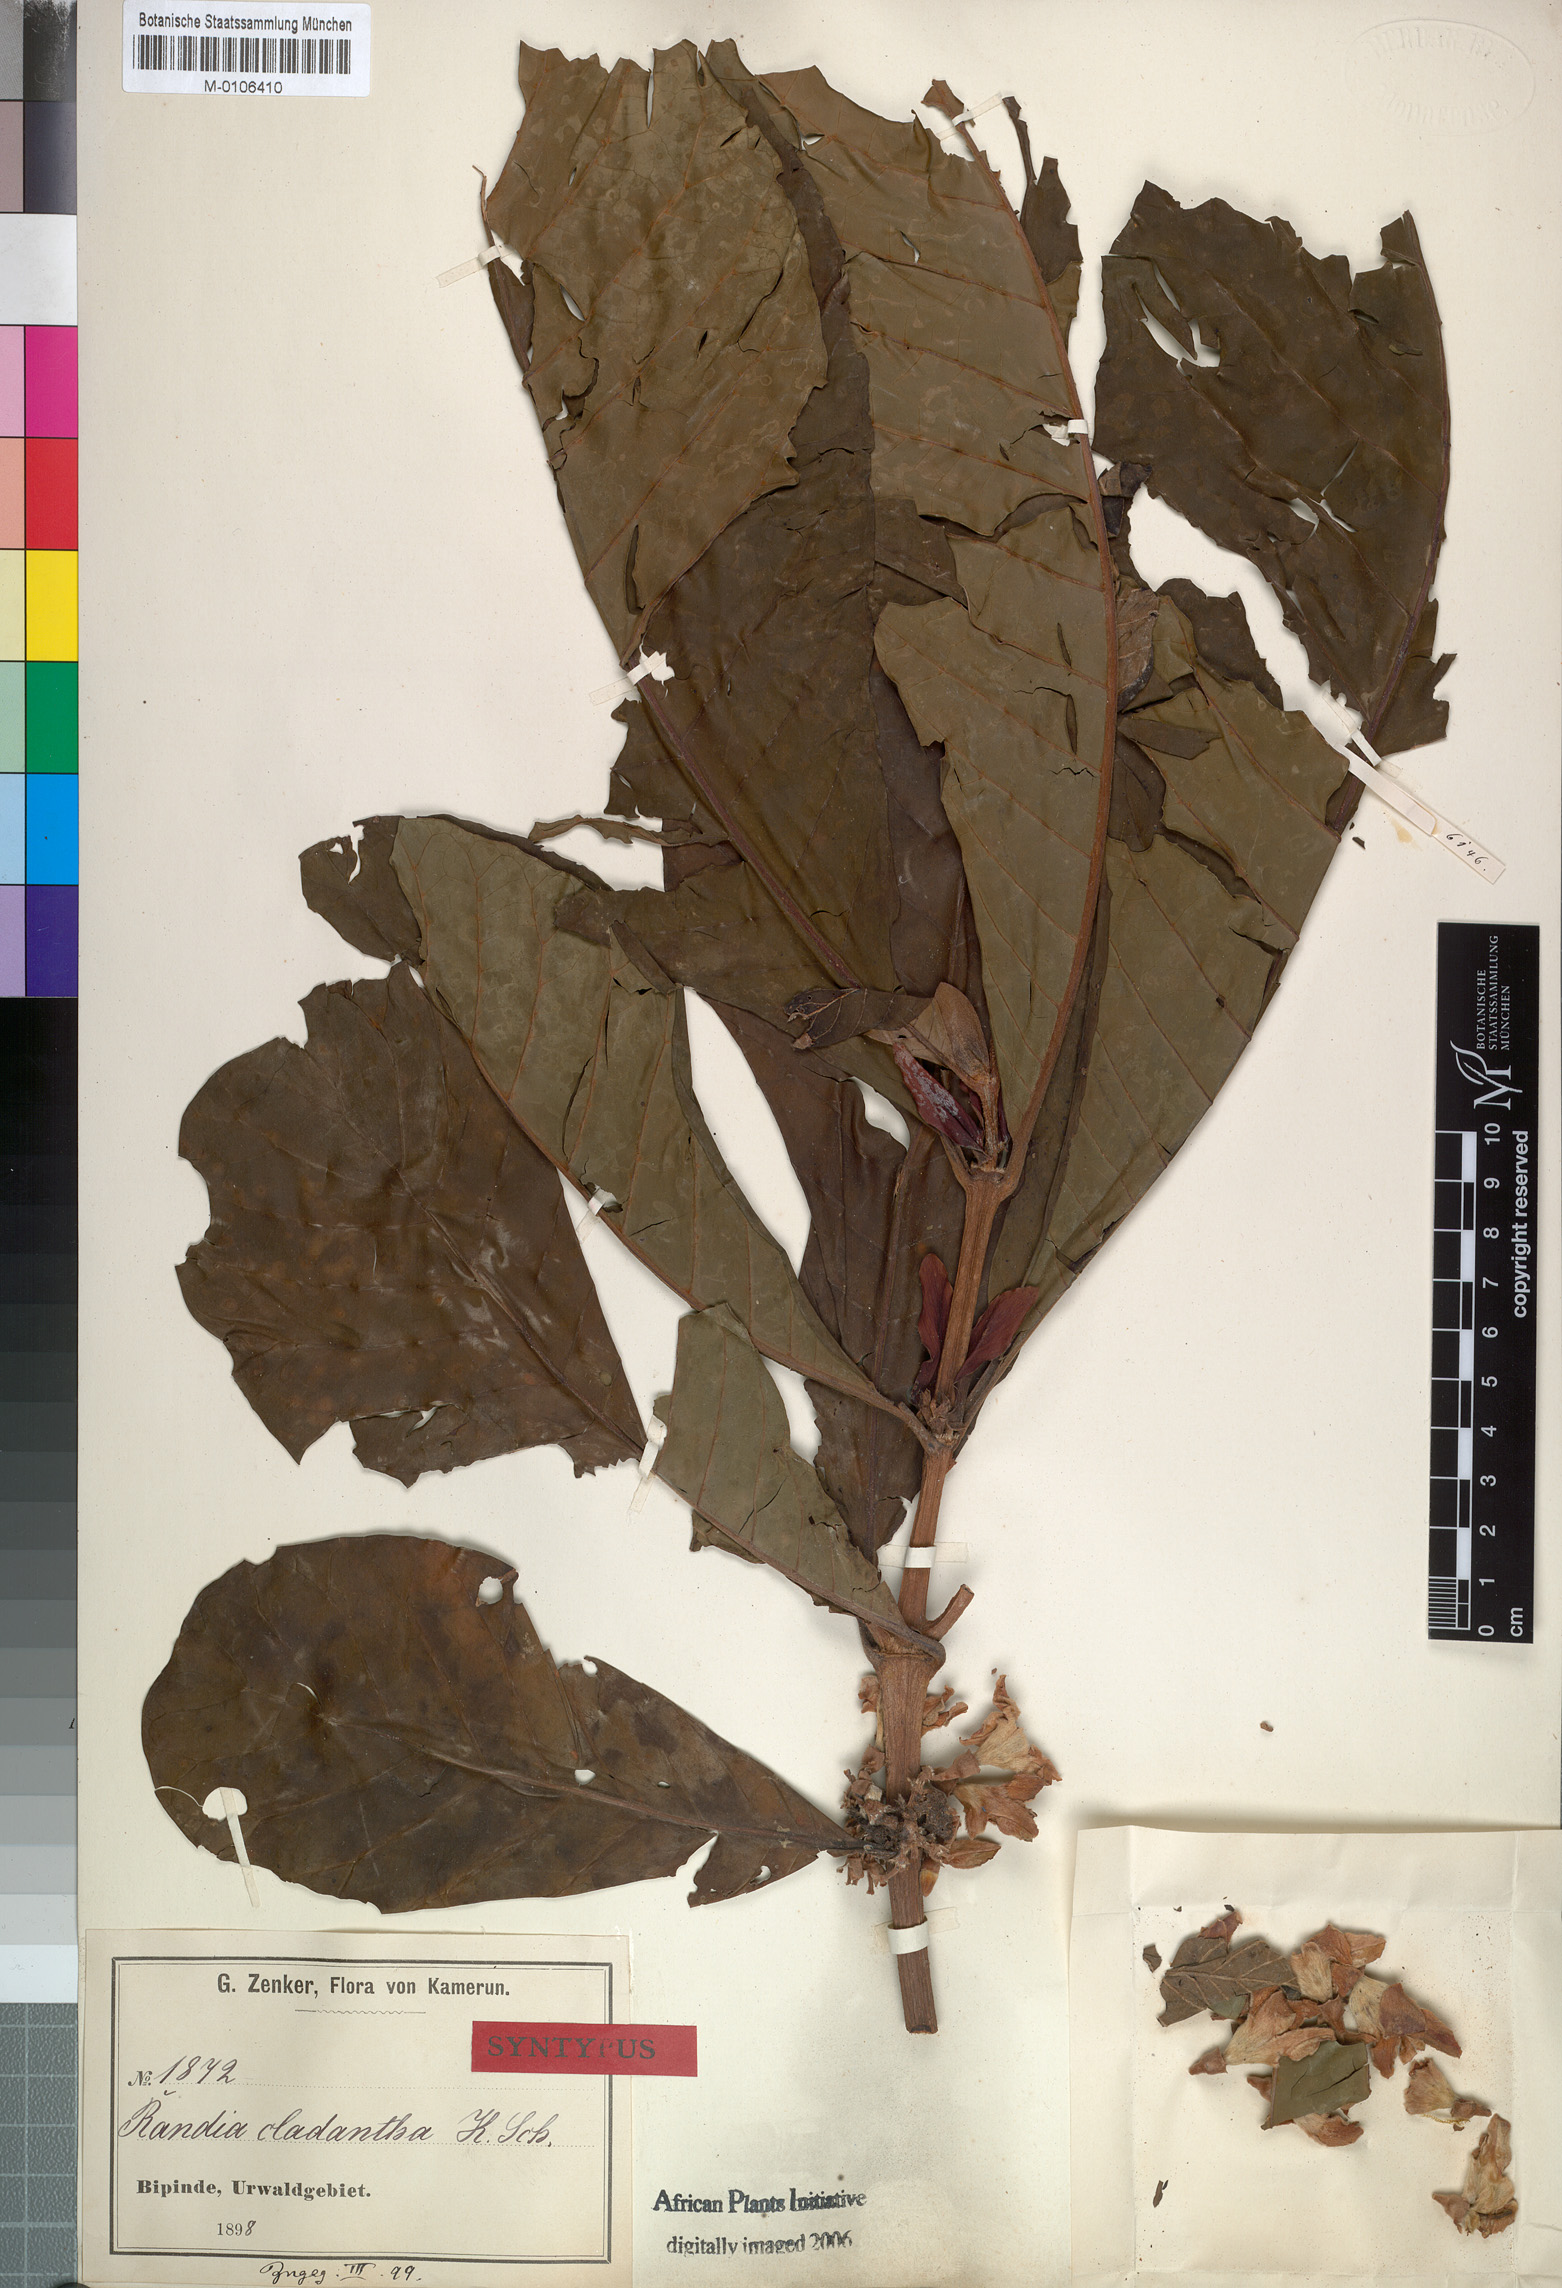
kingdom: Plantae
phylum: Tracheophyta
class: Magnoliopsida
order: Gentianales
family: Rubiaceae
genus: Aoranthe
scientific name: Aoranthe cladantha
